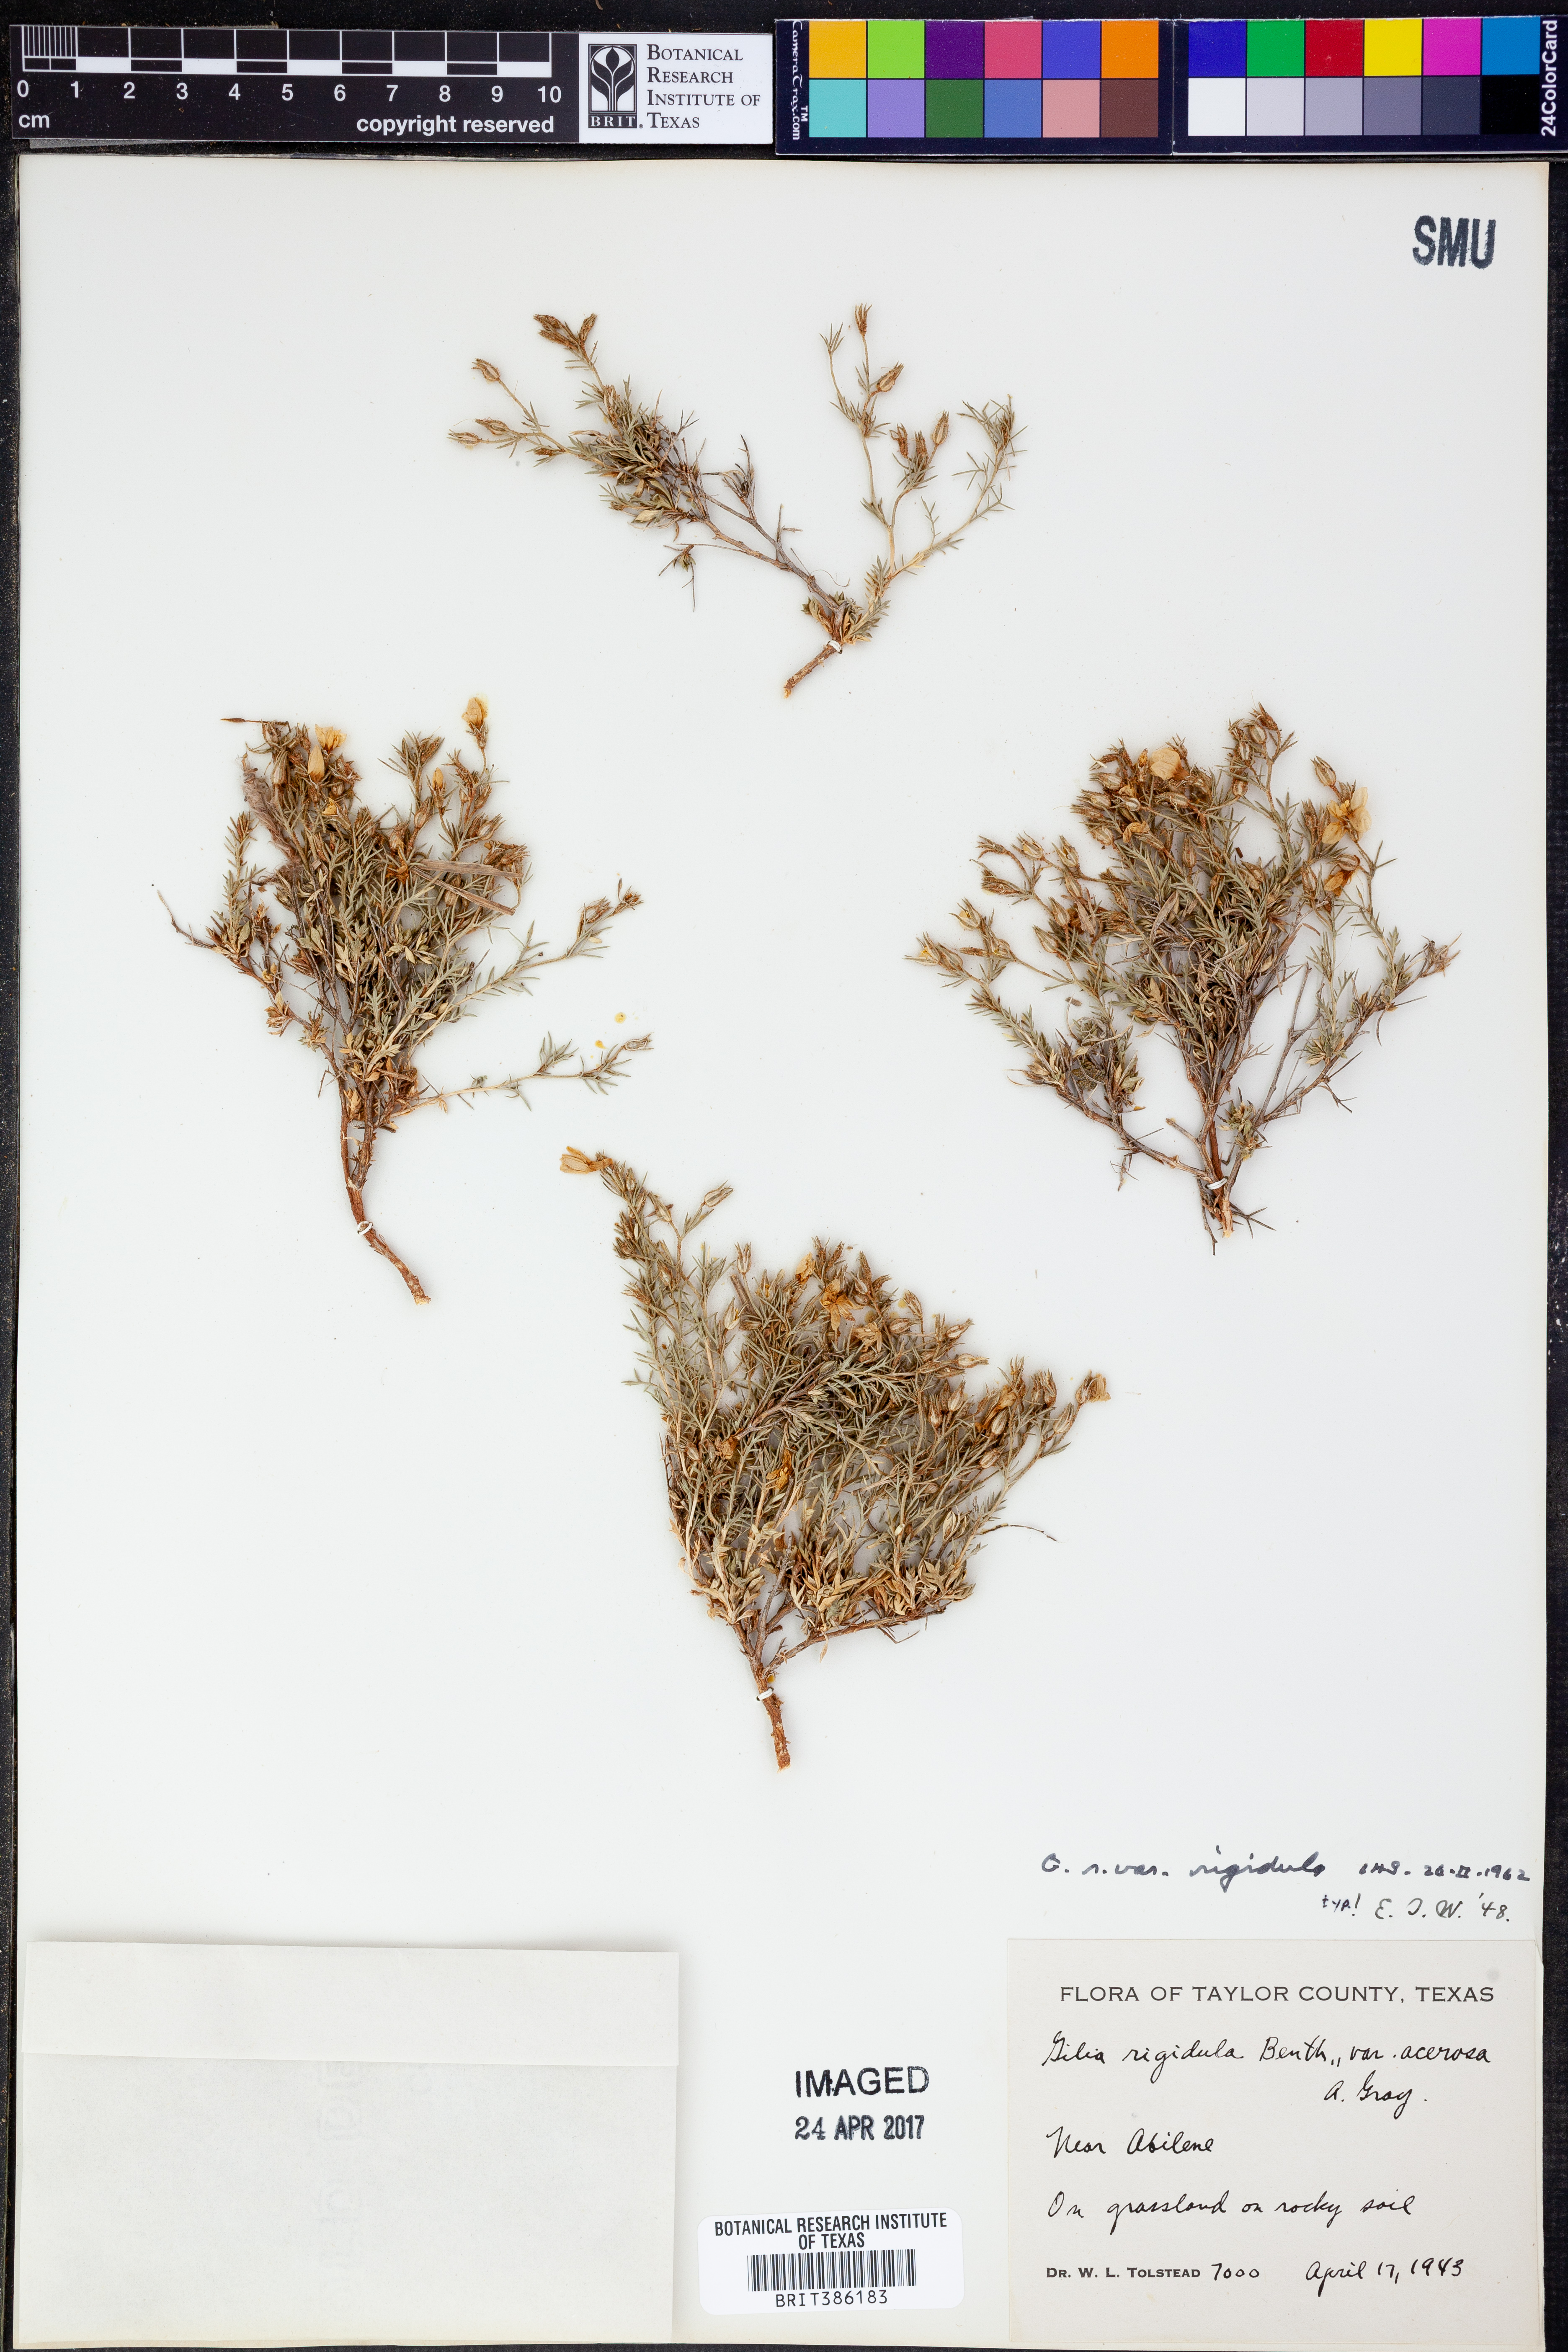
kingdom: Plantae
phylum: Tracheophyta
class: Magnoliopsida
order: Ericales
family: Polemoniaceae
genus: Giliastrum
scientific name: Giliastrum rigidulum
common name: Bluebowls
